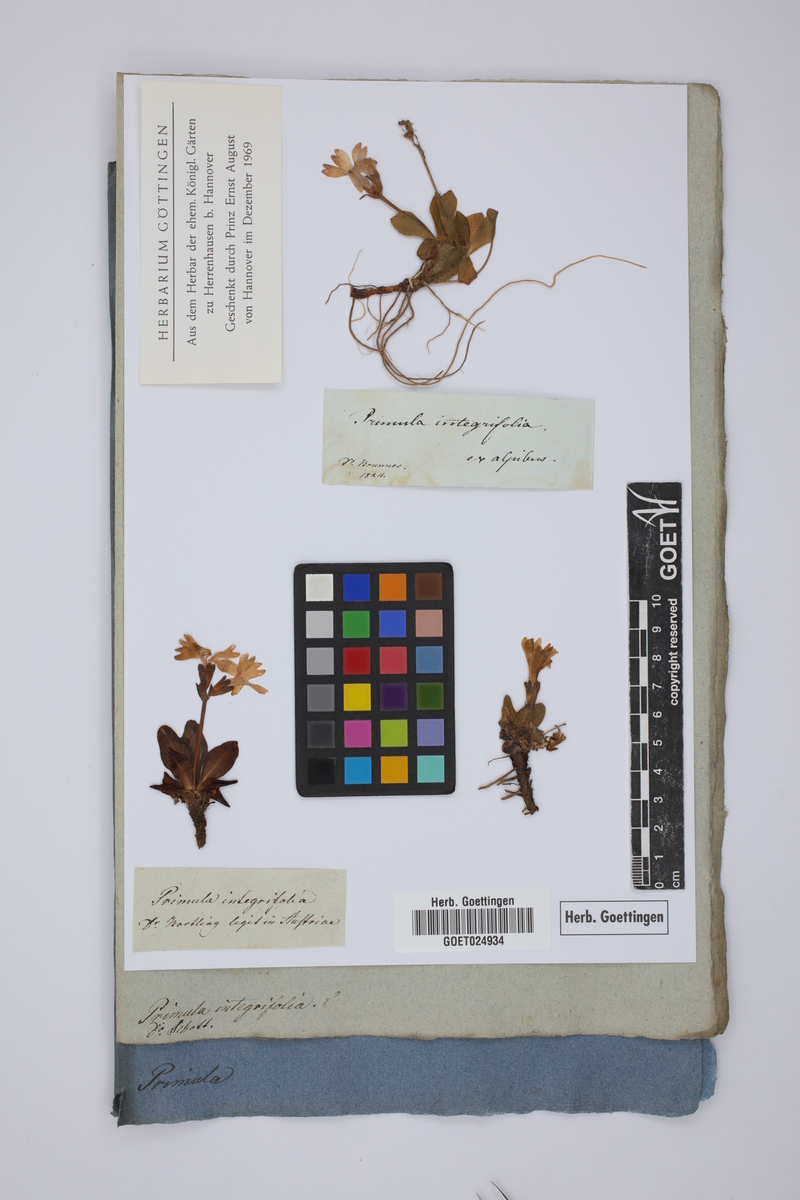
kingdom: Plantae
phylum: Tracheophyta
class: Magnoliopsida
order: Ericales
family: Primulaceae
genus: Primula
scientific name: Primula integrifolia
